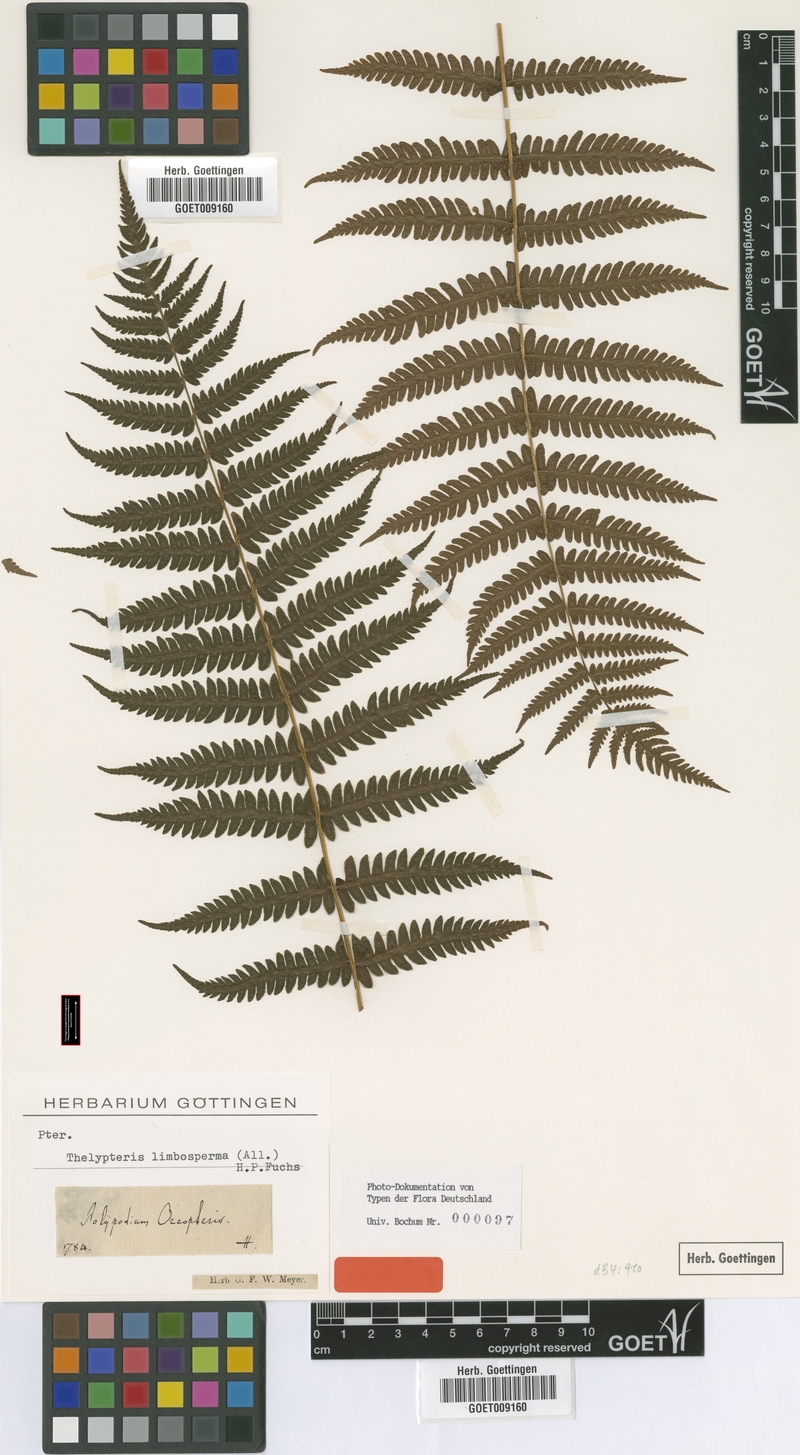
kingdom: Plantae
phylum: Tracheophyta
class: Polypodiopsida
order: Polypodiales
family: Thelypteridaceae
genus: Oreopteris
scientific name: Oreopteris limbosperma
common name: Lemon-scented fern
